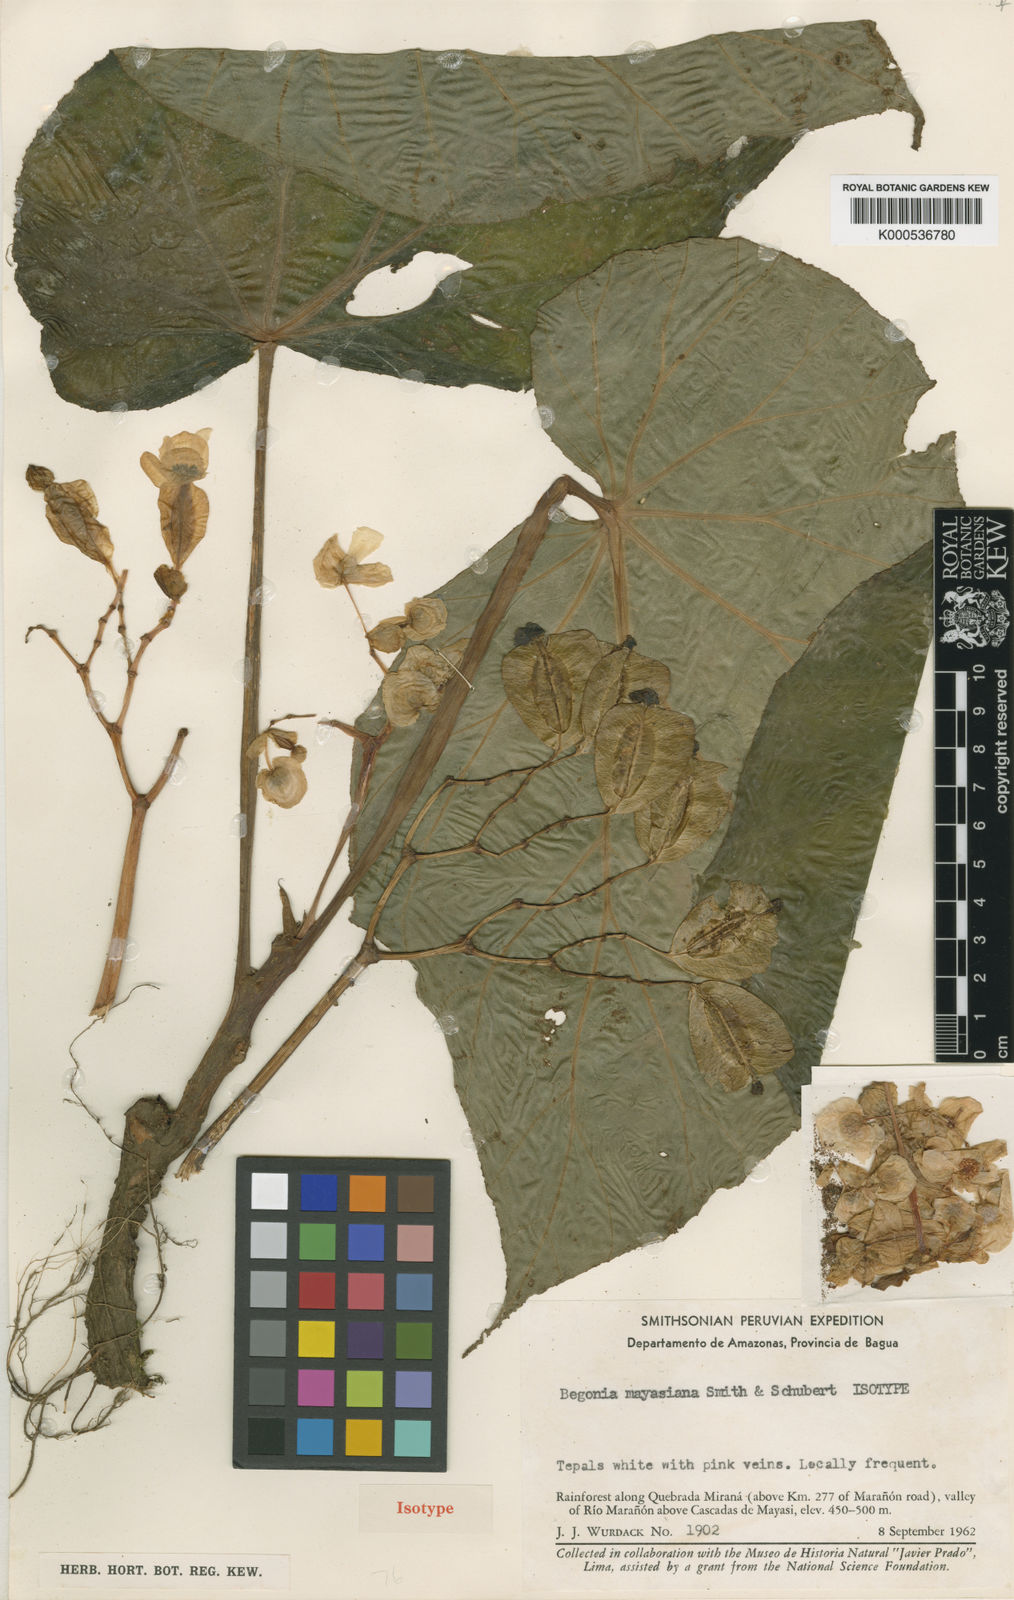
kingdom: Plantae
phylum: Tracheophyta
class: Magnoliopsida
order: Cucurbitales
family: Begoniaceae
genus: Begonia
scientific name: Begonia albomaculata
